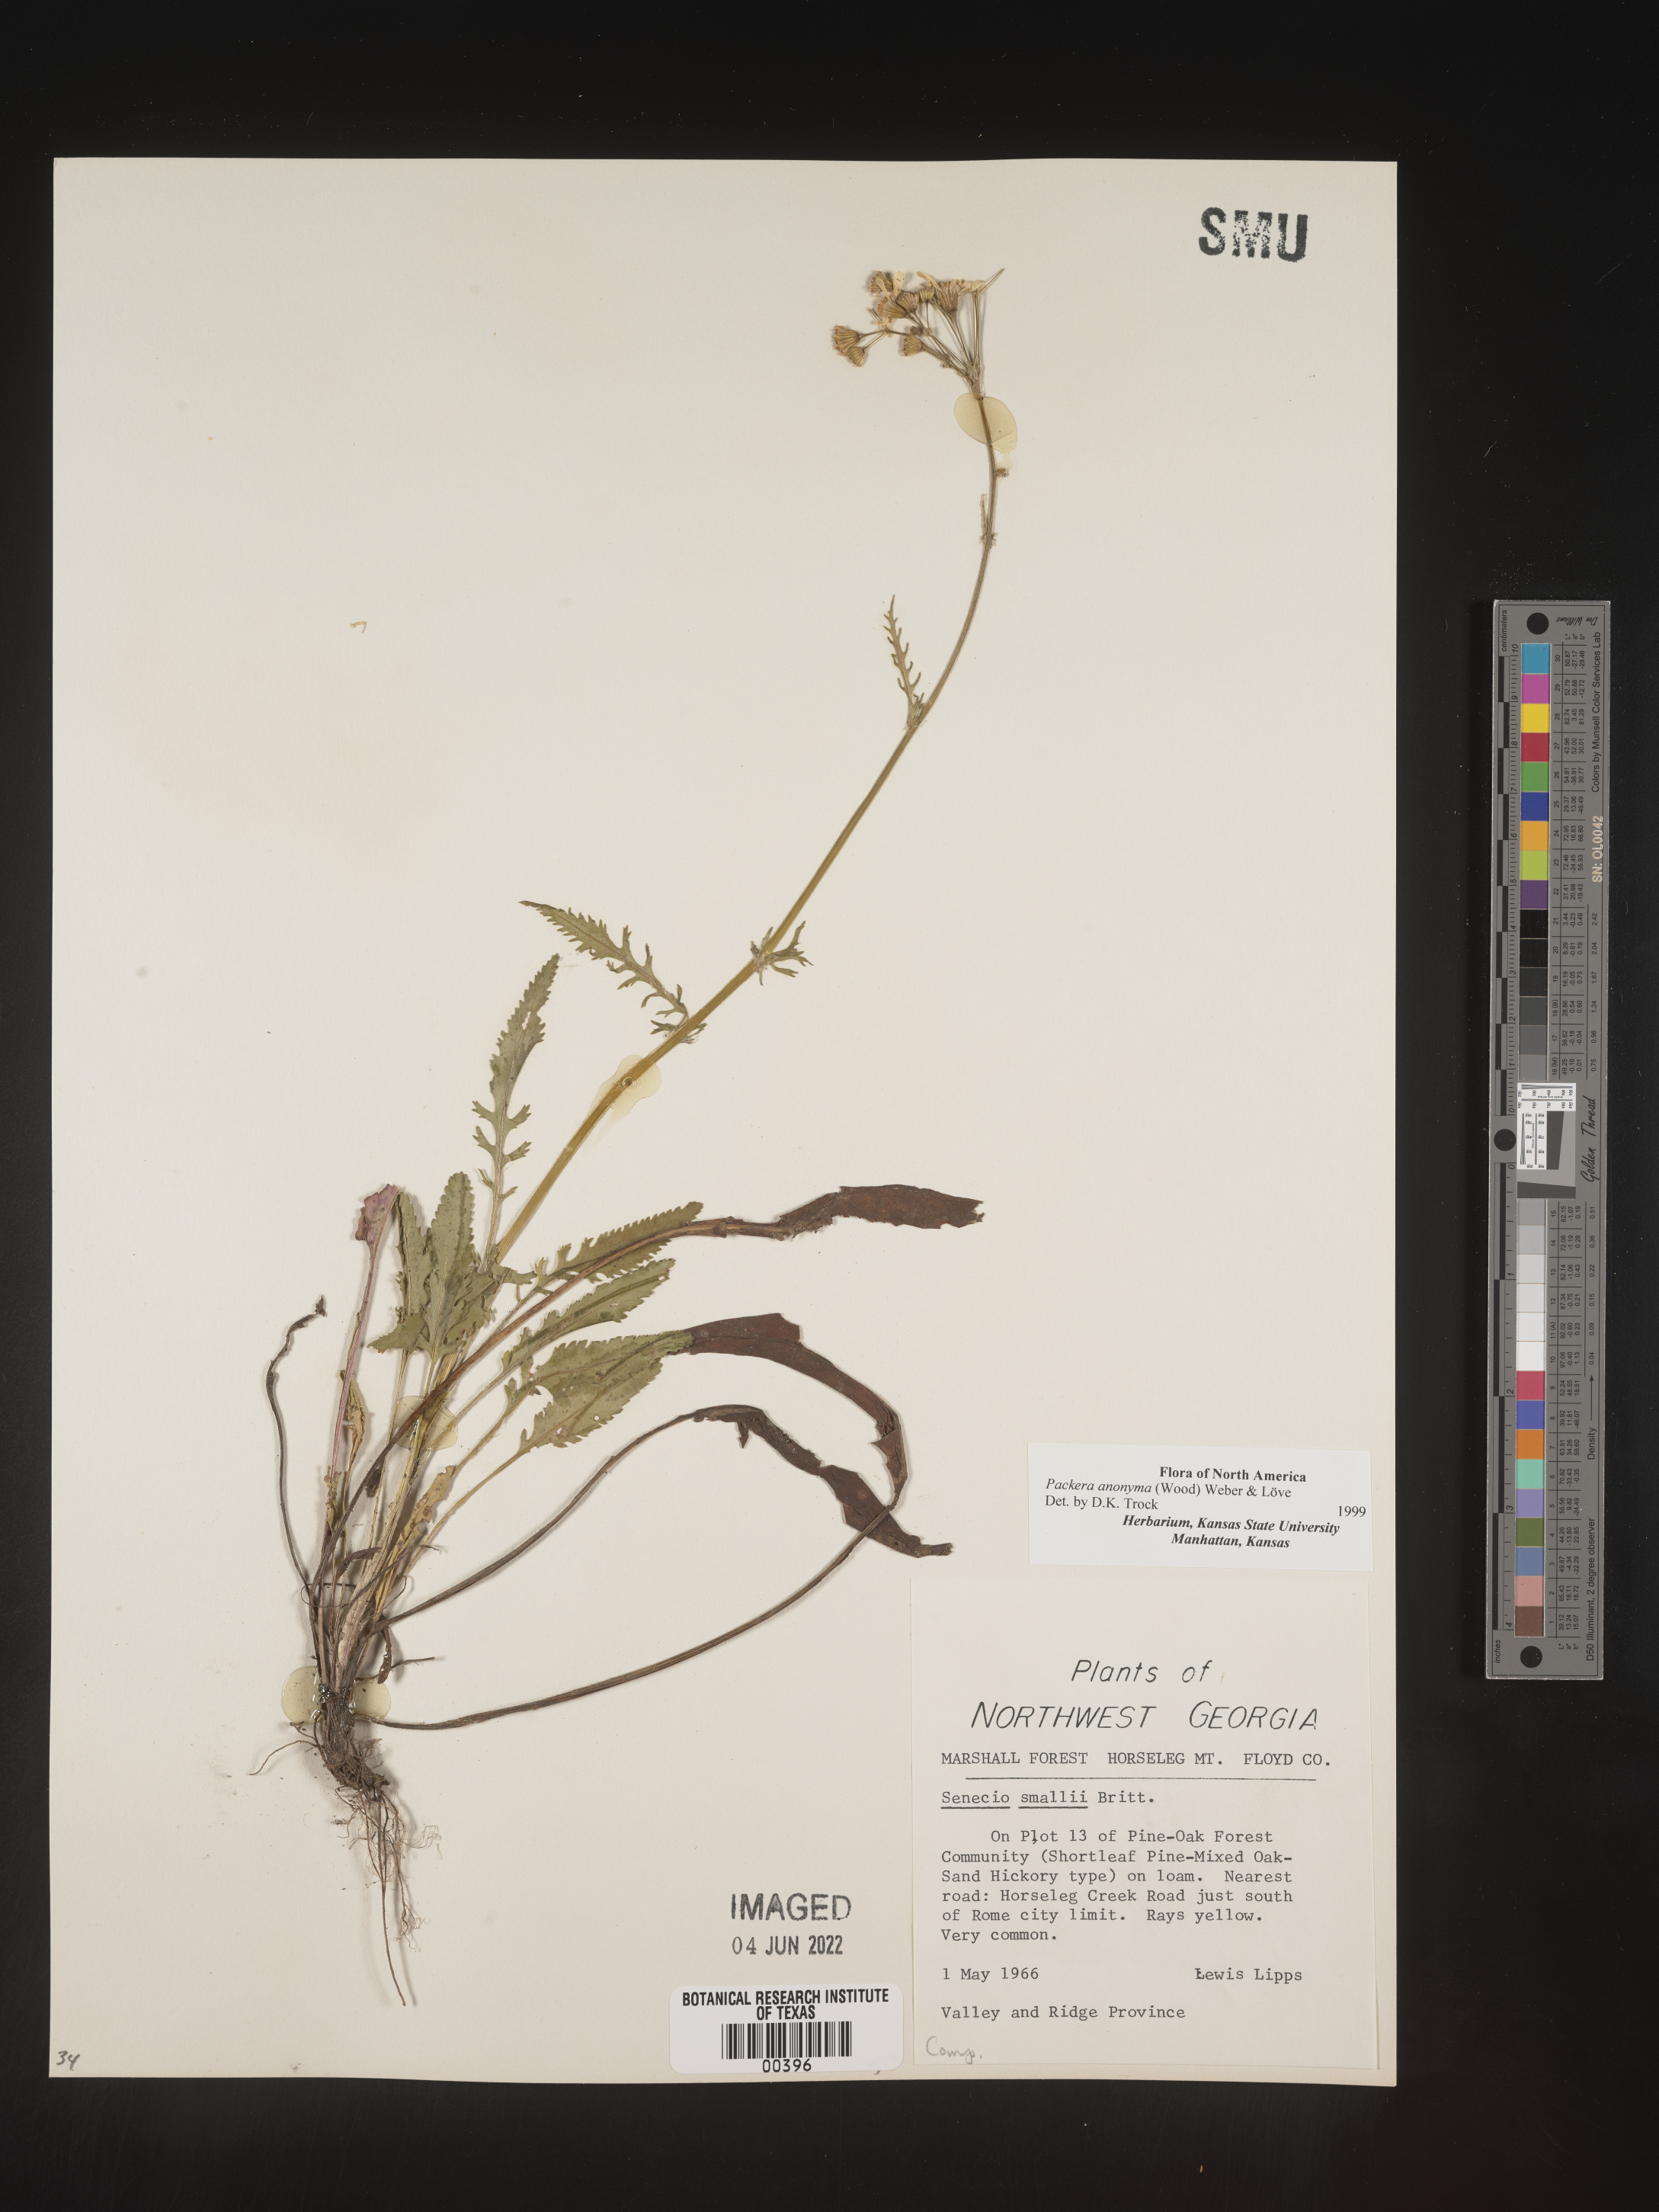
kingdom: Plantae
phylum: Tracheophyta
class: Magnoliopsida
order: Asterales
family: Asteraceae
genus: Packera
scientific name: Packera anonyma
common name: Small ragwort
